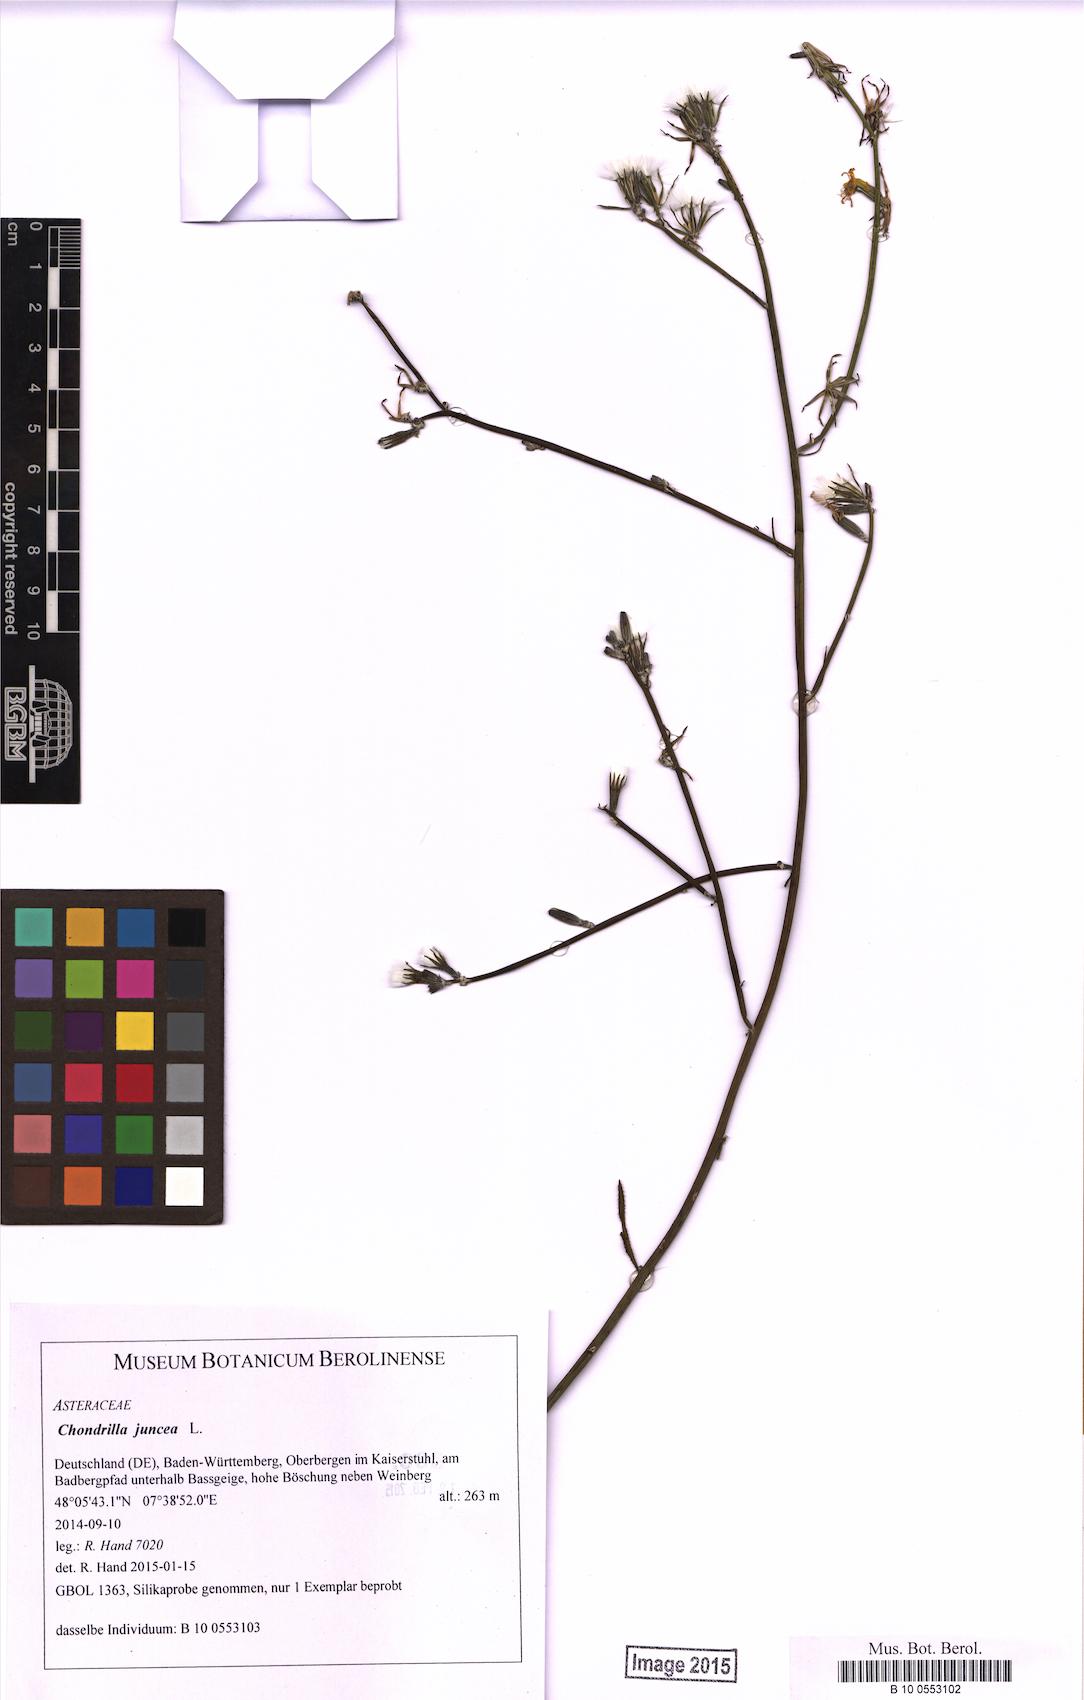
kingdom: Plantae
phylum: Tracheophyta
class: Magnoliopsida
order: Asterales
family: Asteraceae
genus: Chondrilla
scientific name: Chondrilla juncea
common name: Skeleton weed
